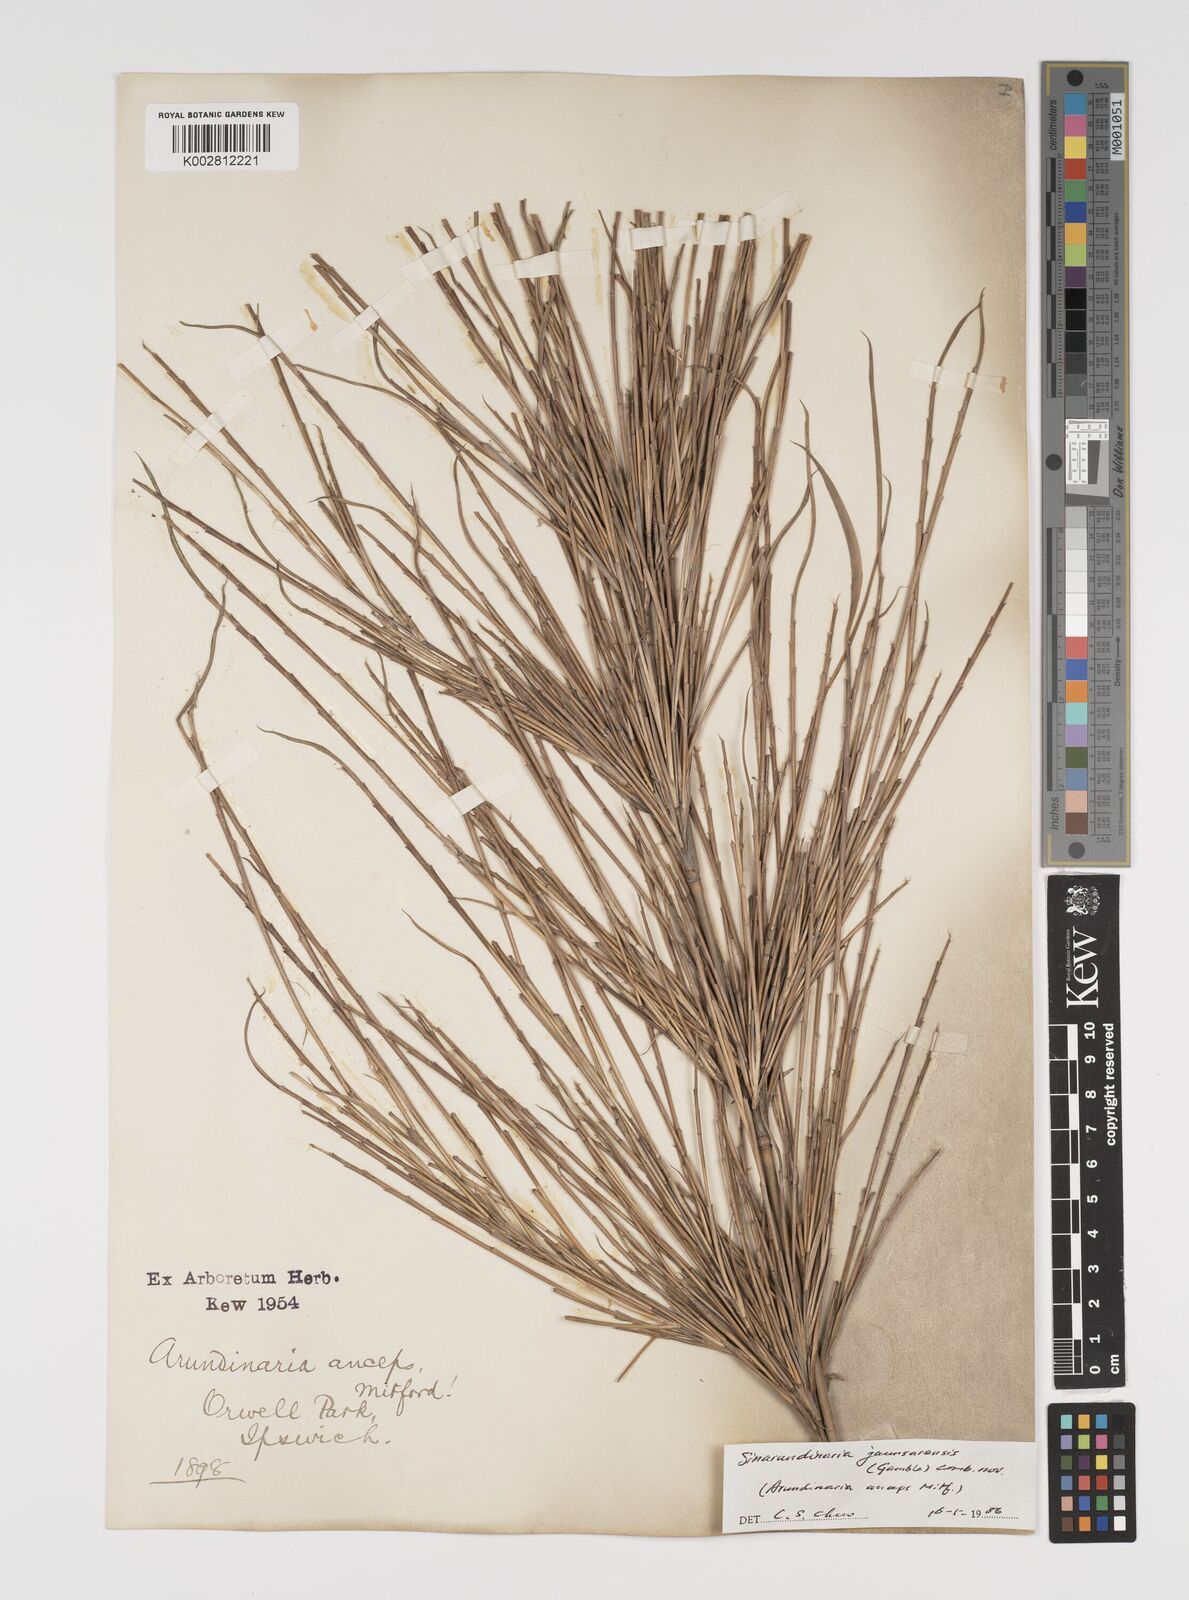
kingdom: Plantae
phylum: Tracheophyta
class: Liliopsida
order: Poales
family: Poaceae
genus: Yushania
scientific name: Yushania anceps
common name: Indian fountain-bamboo
